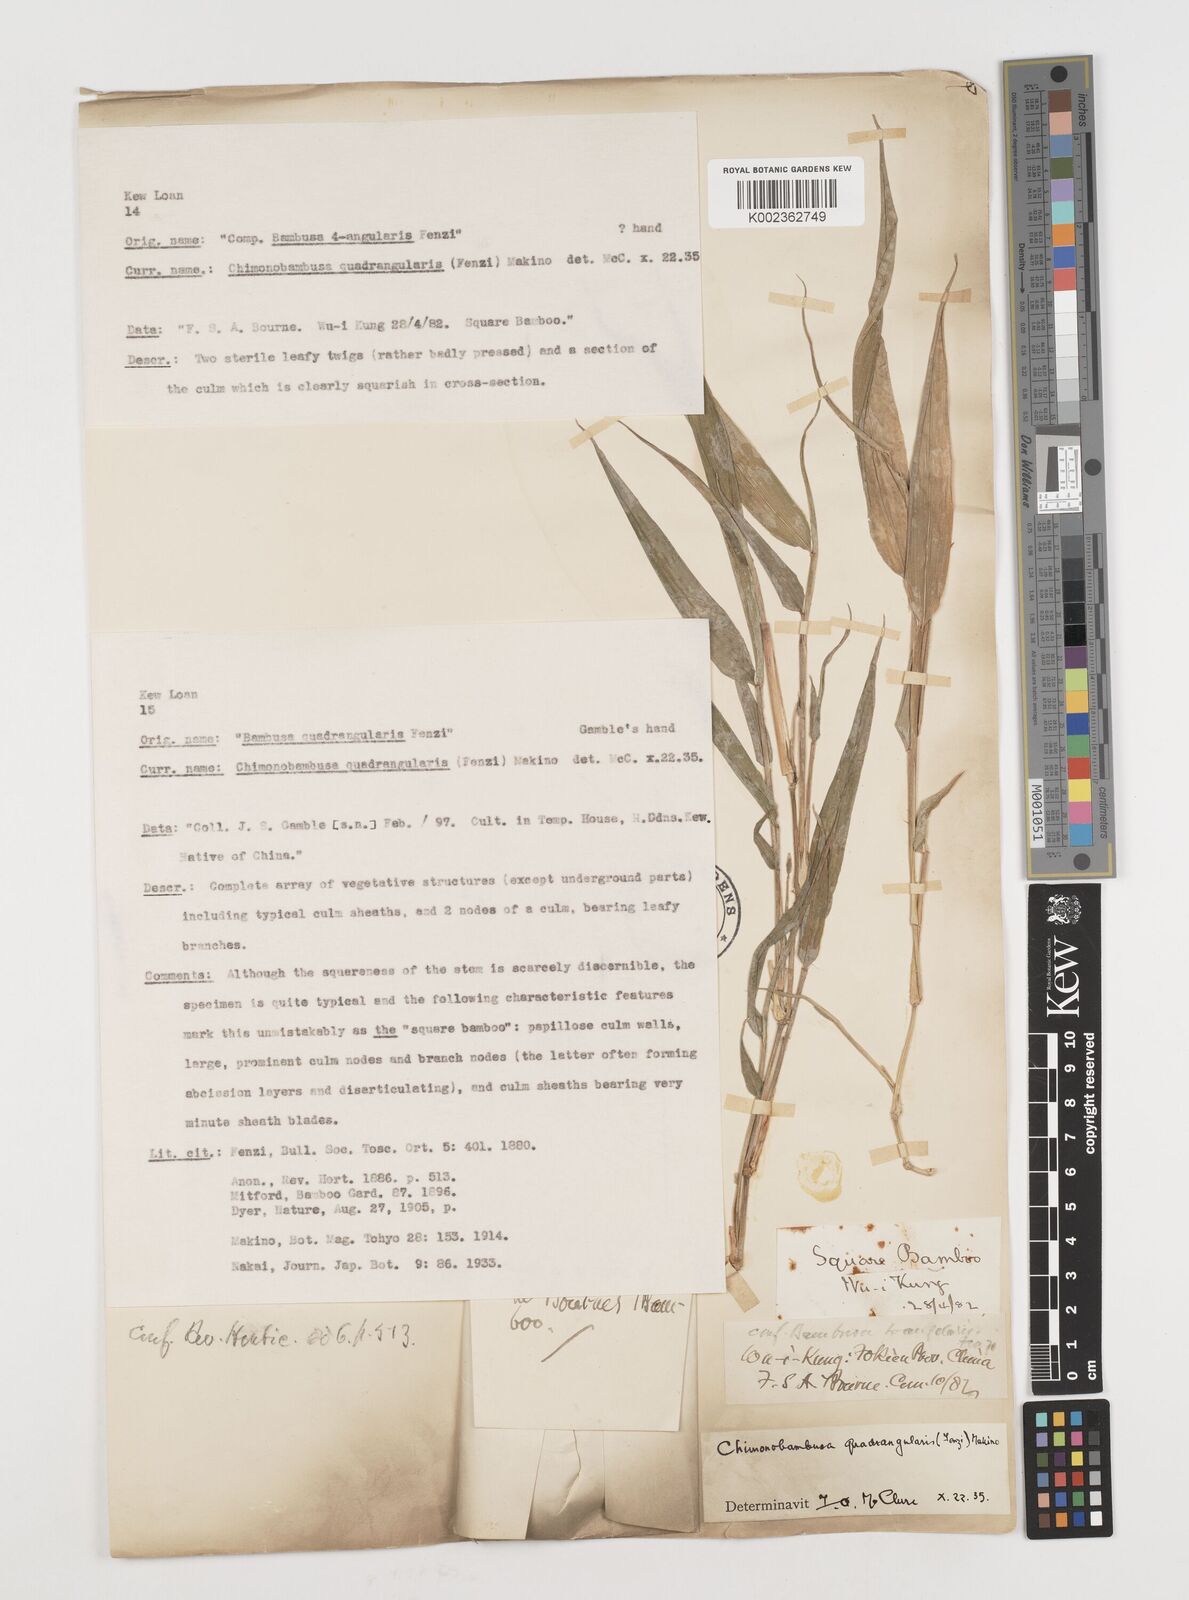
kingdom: Plantae
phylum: Tracheophyta
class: Liliopsida
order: Poales
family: Poaceae
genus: Chimonobambusa
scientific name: Chimonobambusa quadrangularis
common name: Square-stemmed bamboo
